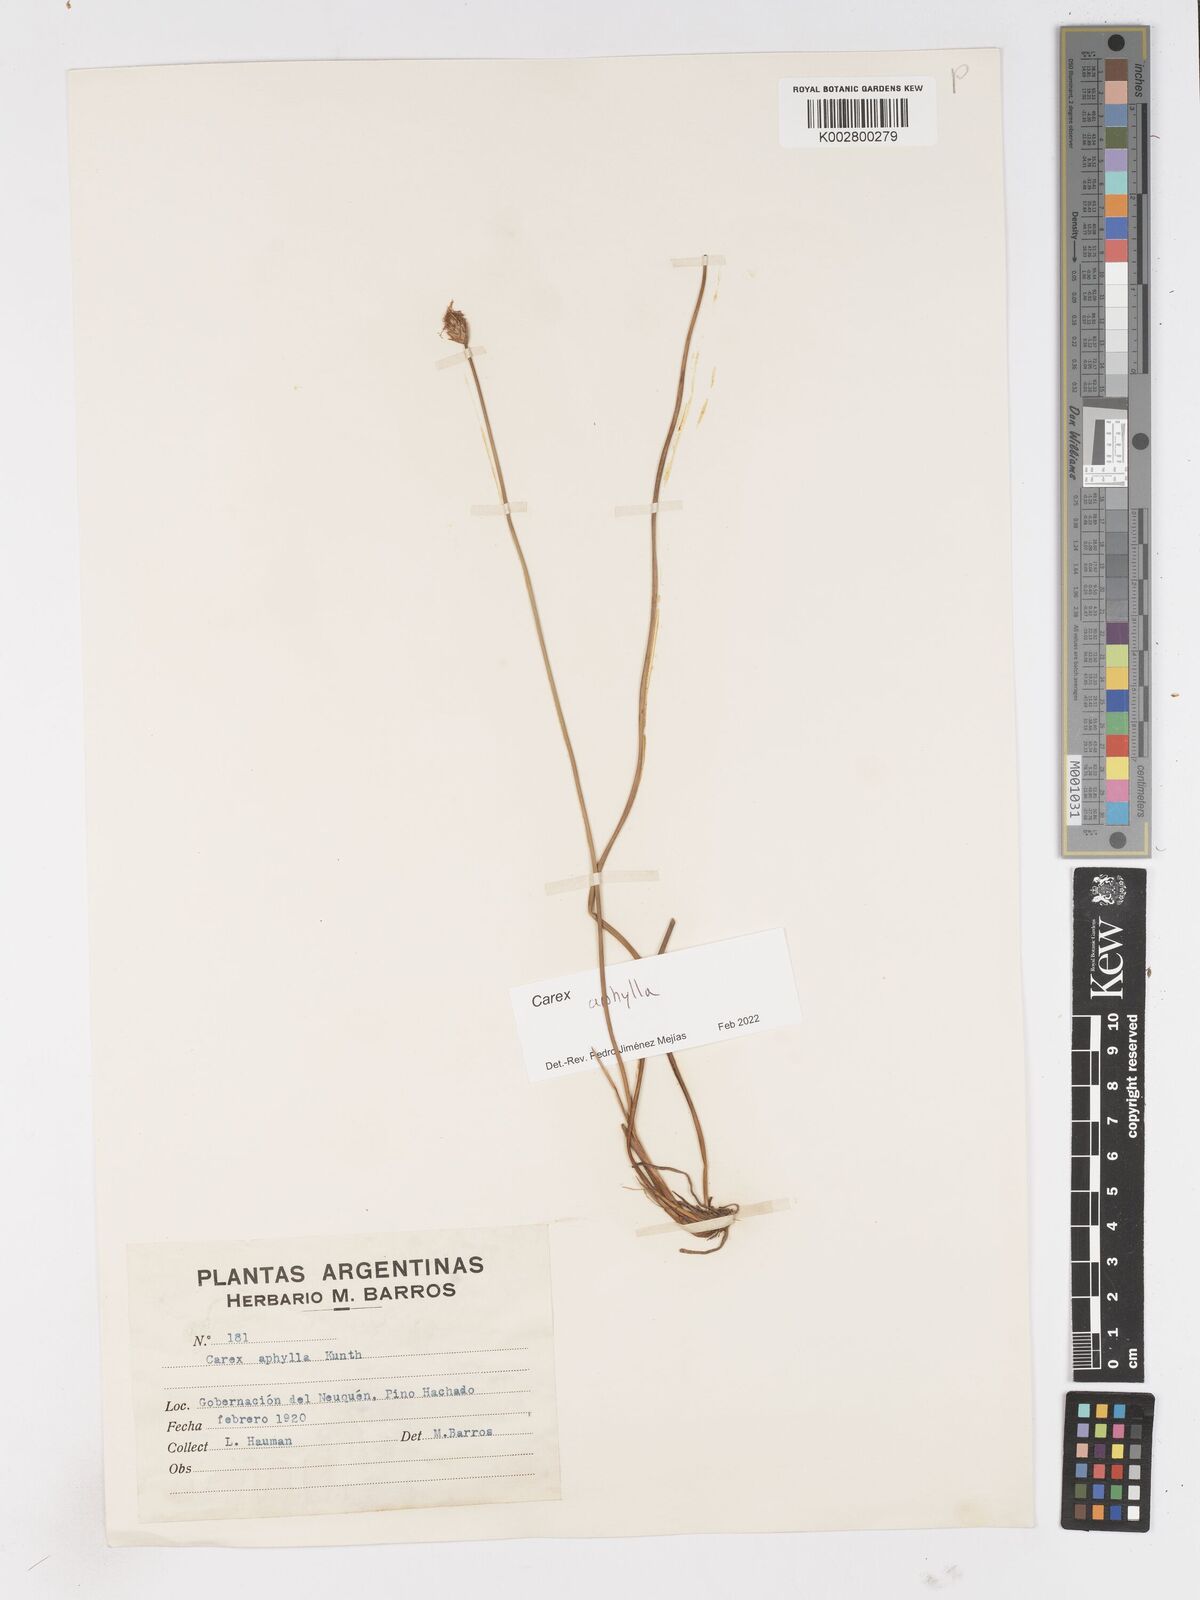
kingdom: Plantae
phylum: Tracheophyta
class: Liliopsida
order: Poales
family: Cyperaceae
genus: Carex
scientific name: Carex aphylla
